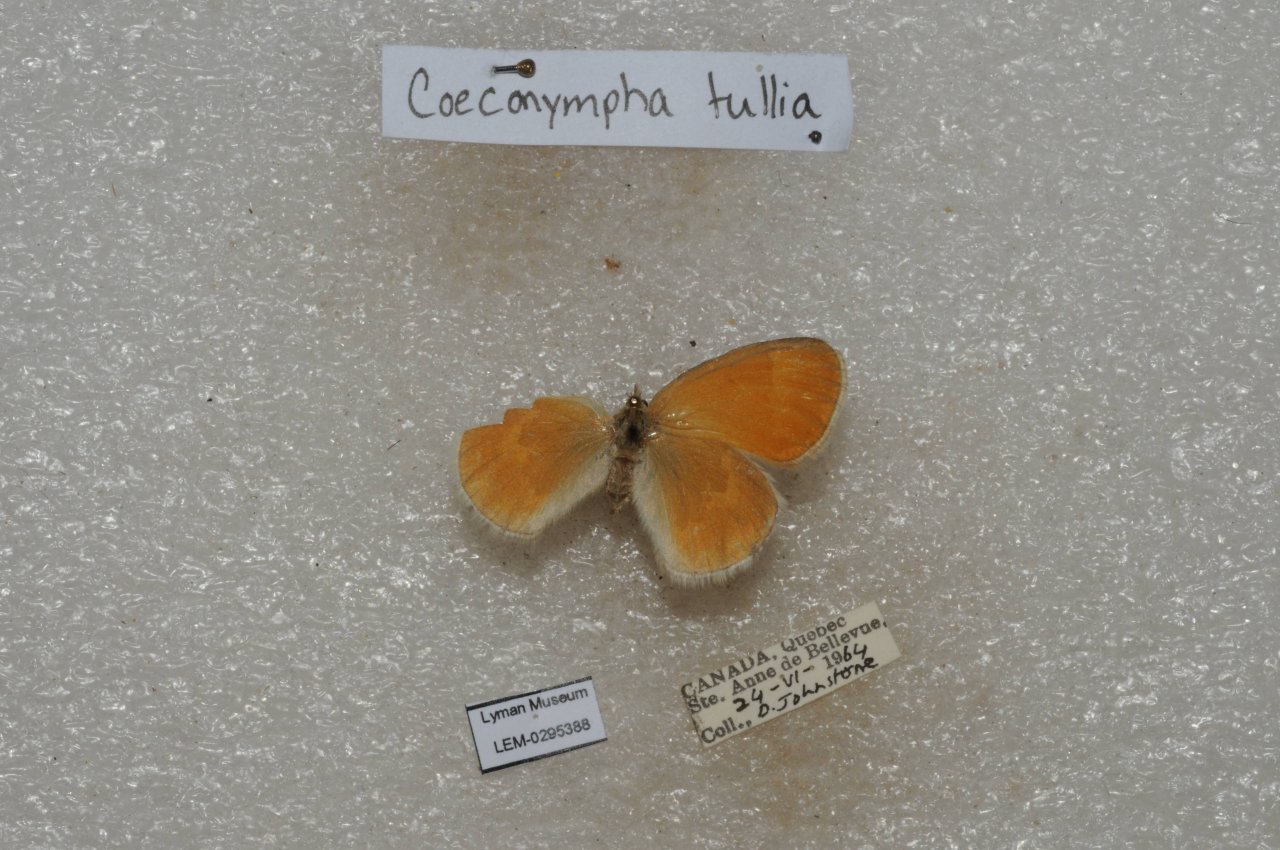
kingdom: Animalia
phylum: Arthropoda
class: Insecta
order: Lepidoptera
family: Nymphalidae
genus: Coenonympha
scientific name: Coenonympha tullia
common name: Large Heath
